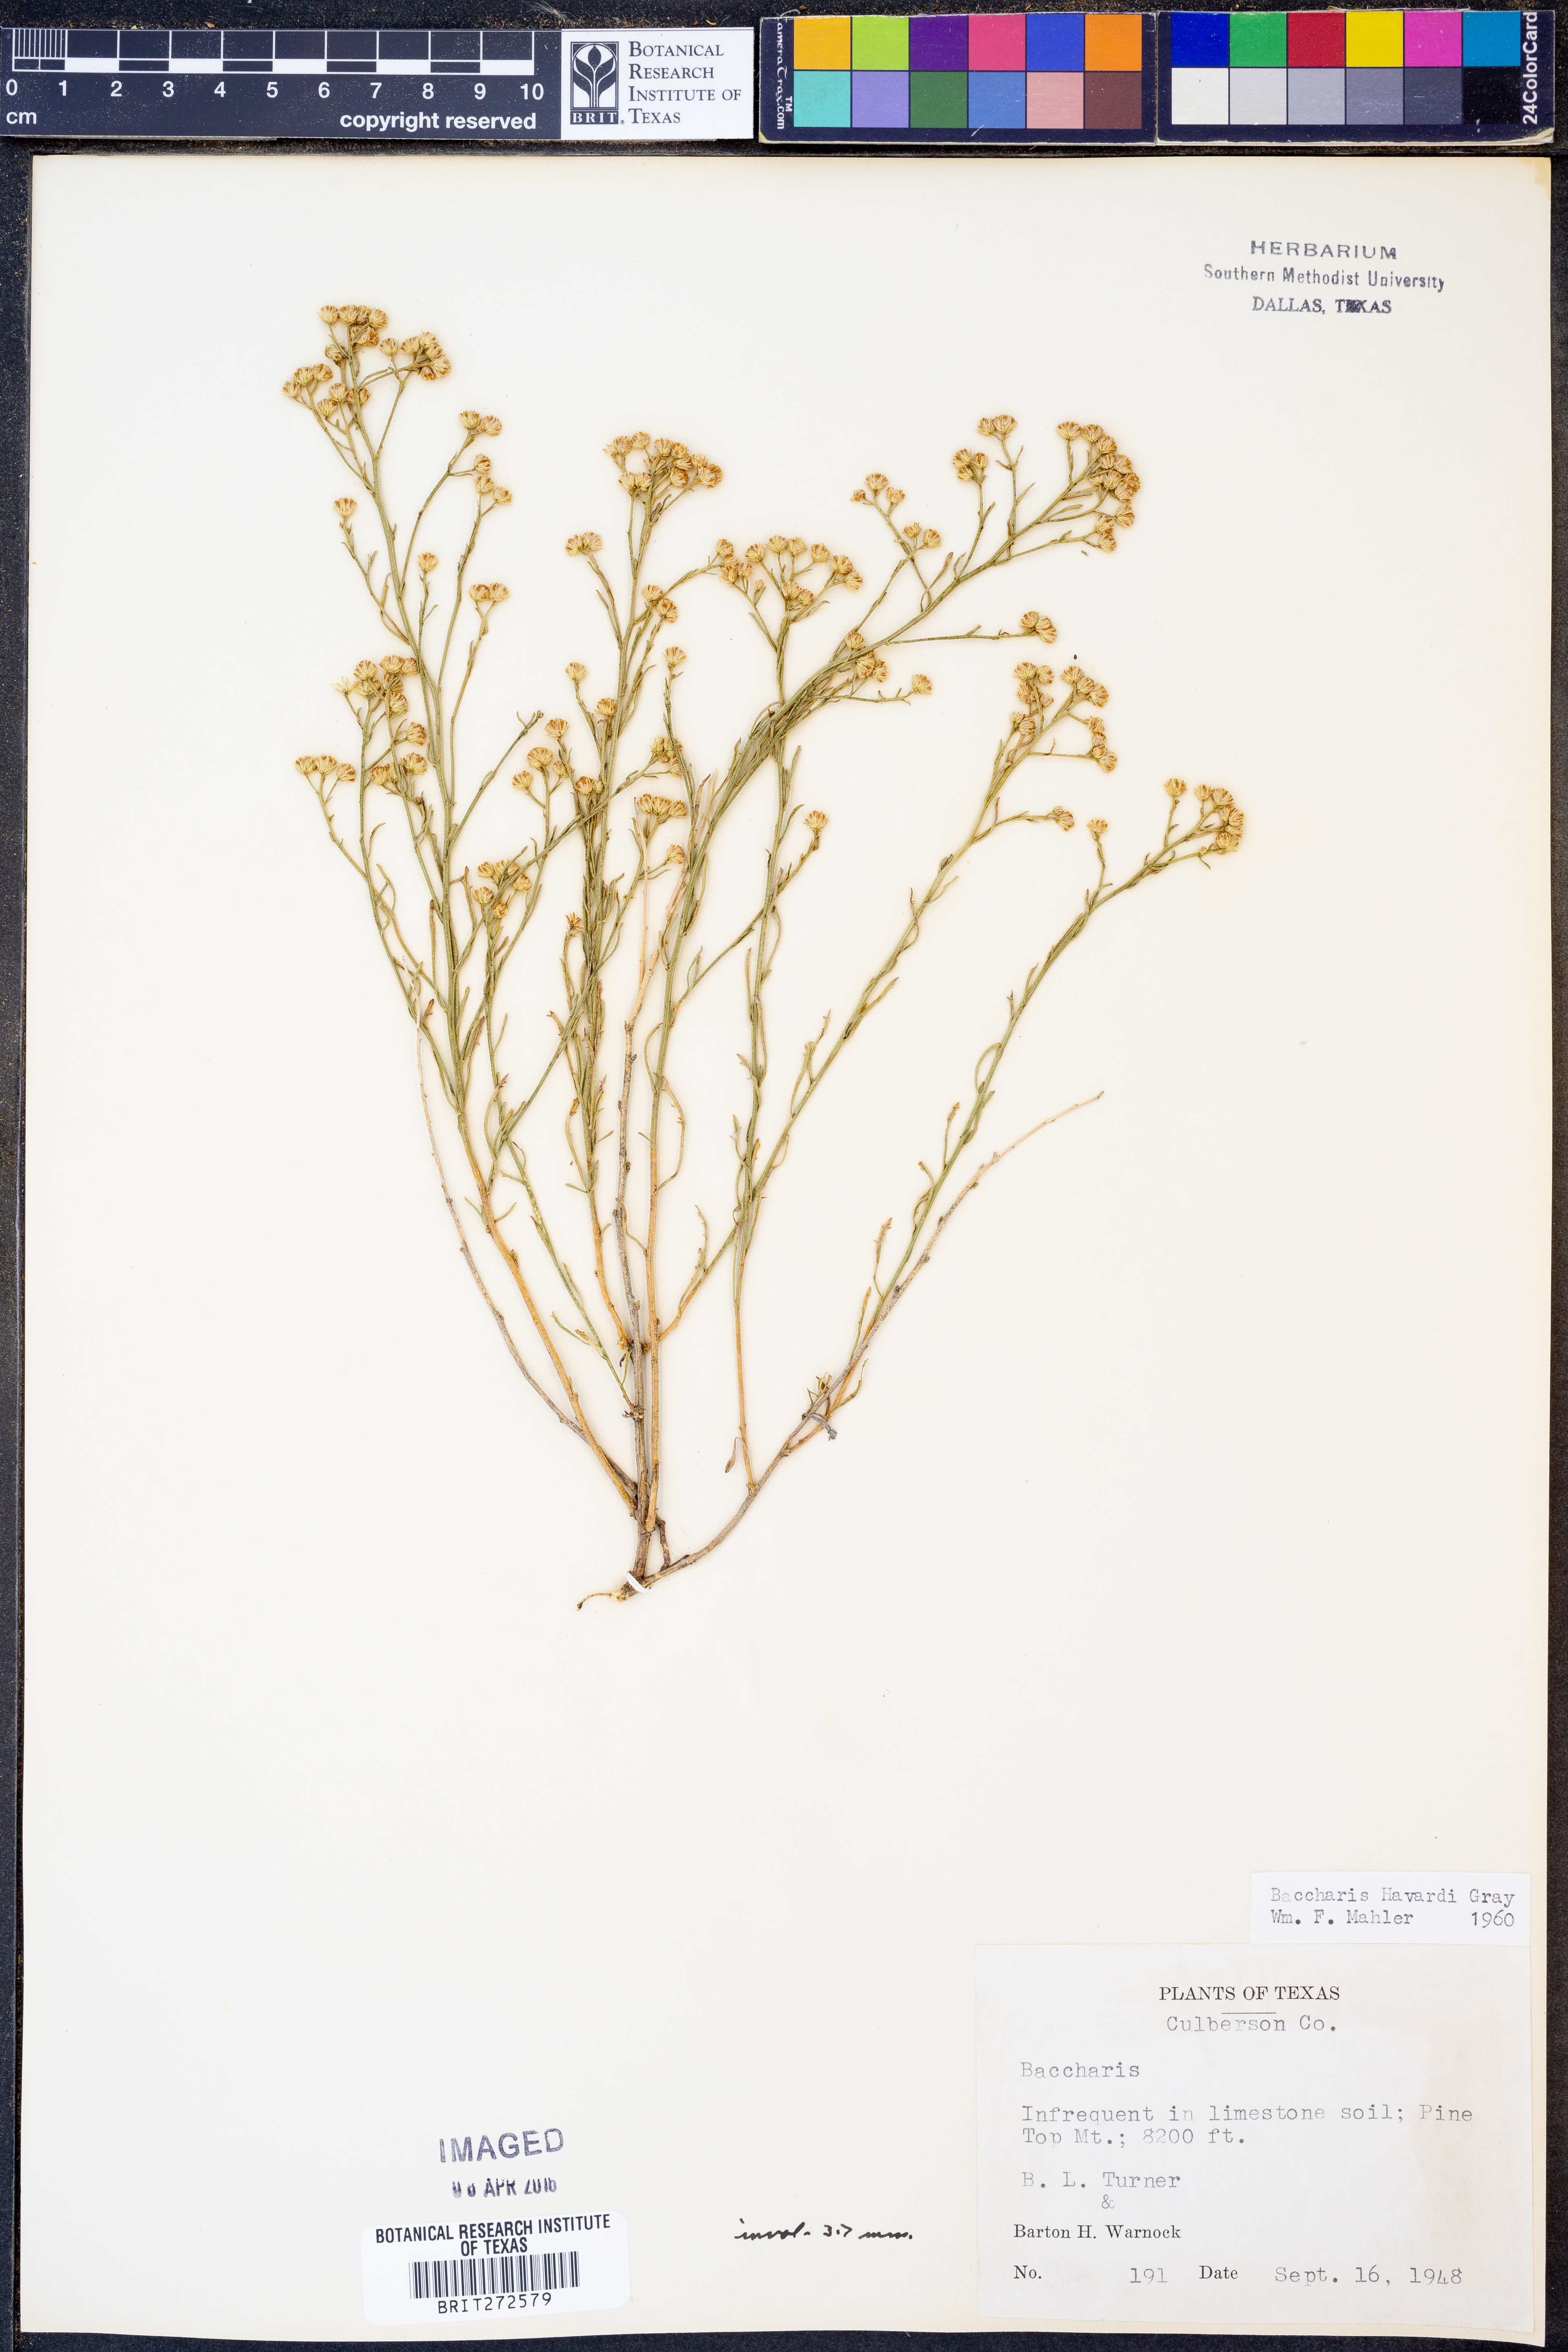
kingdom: Plantae
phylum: Tracheophyta
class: Magnoliopsida
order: Asterales
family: Asteraceae
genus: Baccharis
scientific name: Baccharis havardii
